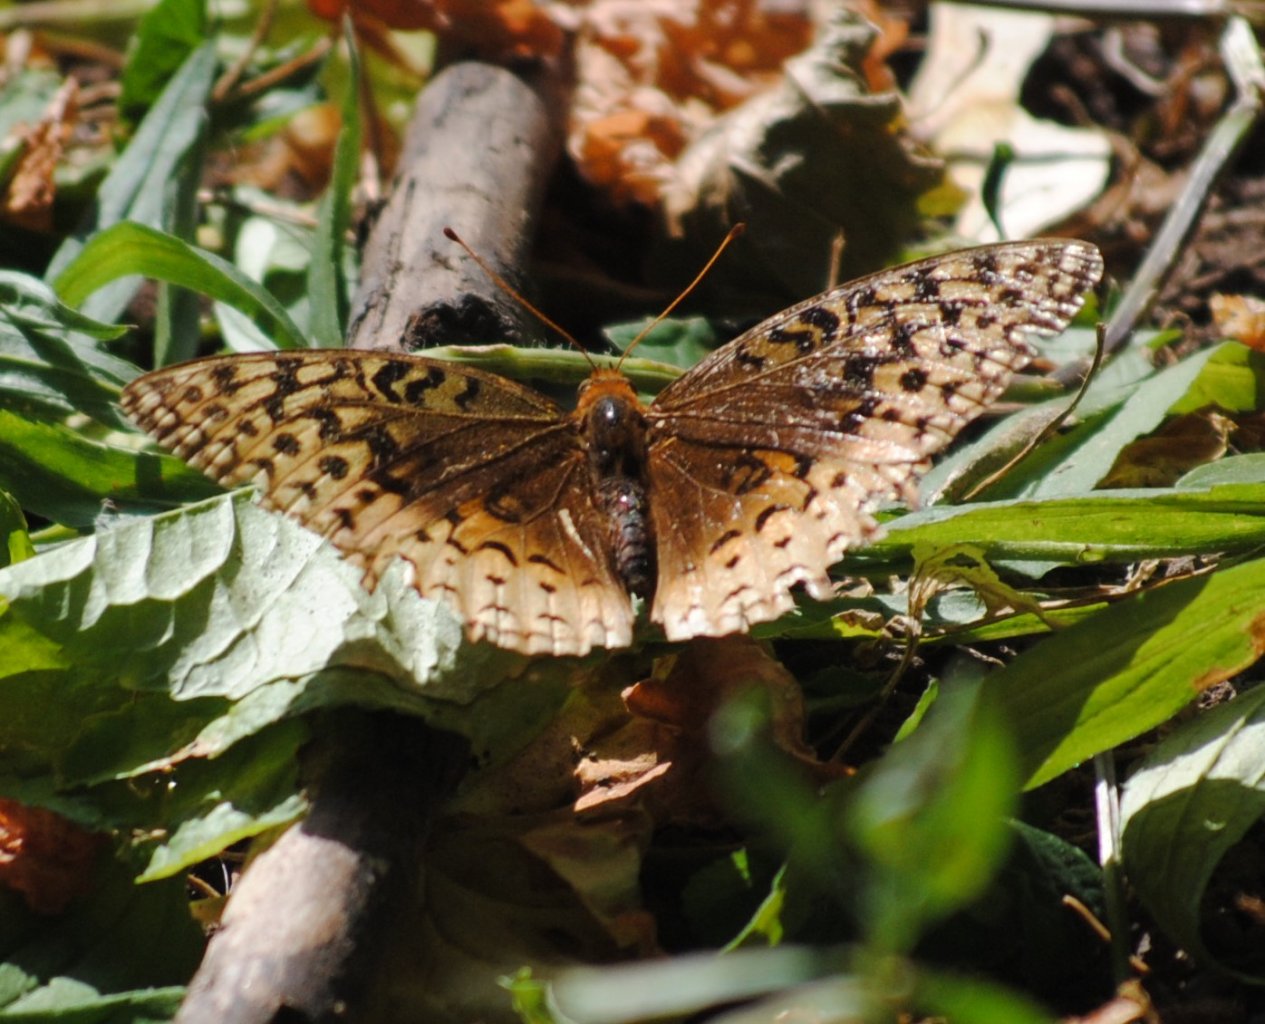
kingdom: Animalia
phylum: Arthropoda
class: Insecta
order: Lepidoptera
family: Nymphalidae
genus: Speyeria
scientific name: Speyeria cybele
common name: Great Spangled Fritillary
